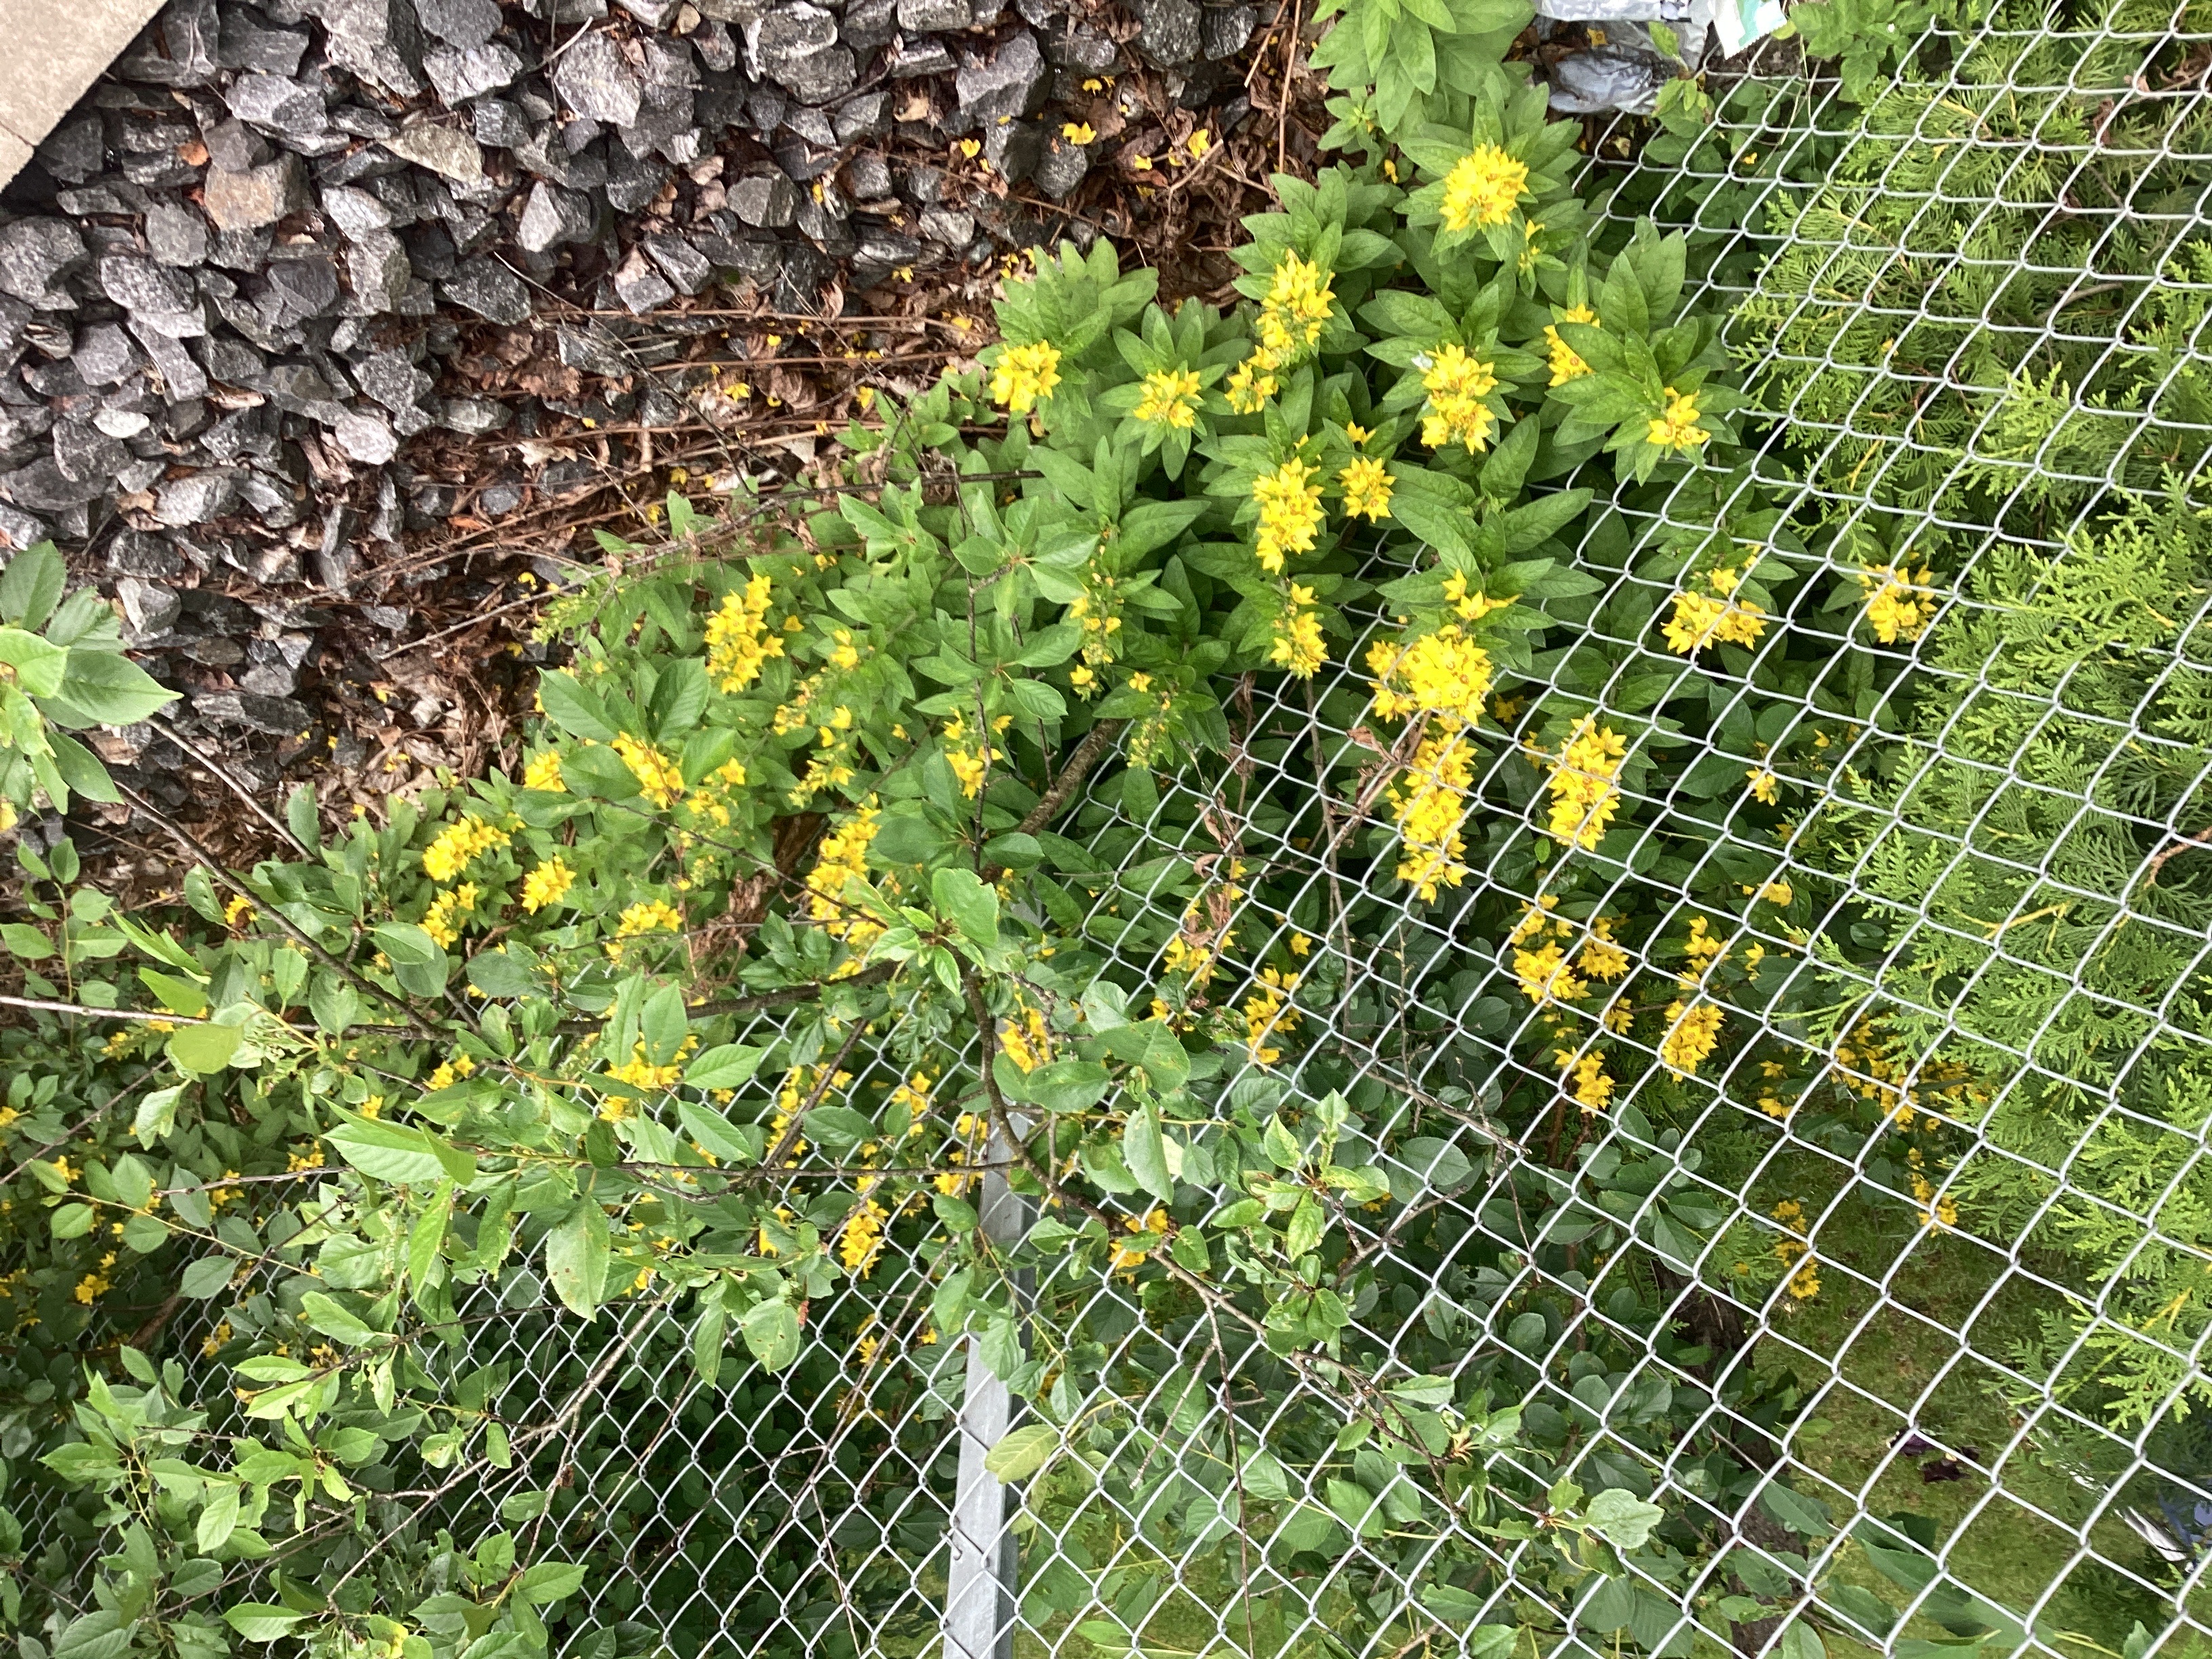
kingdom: Plantae
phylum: Tracheophyta
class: Magnoliopsida
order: Ericales
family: Primulaceae
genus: Lysimachia
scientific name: Lysimachia punctata
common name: fagerfredløs
